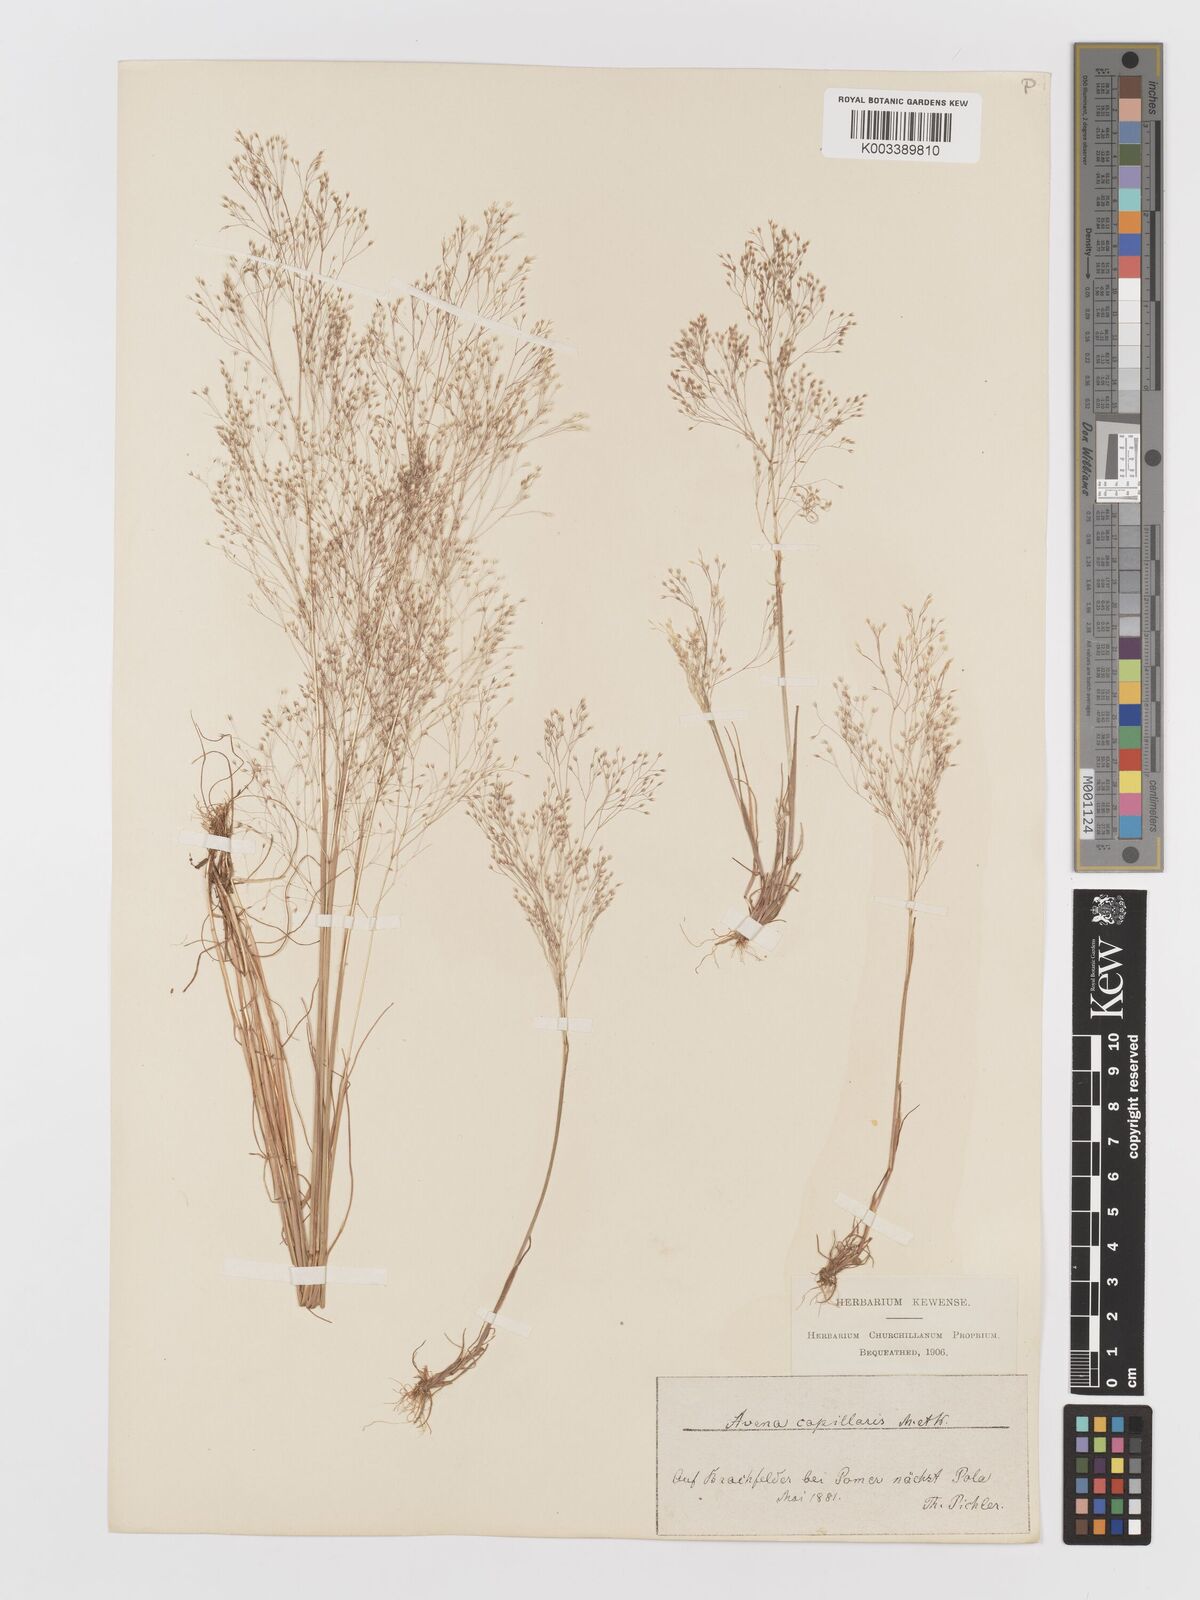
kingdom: Plantae
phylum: Tracheophyta
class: Liliopsida
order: Poales
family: Poaceae
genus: Aira
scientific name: Aira elegans
